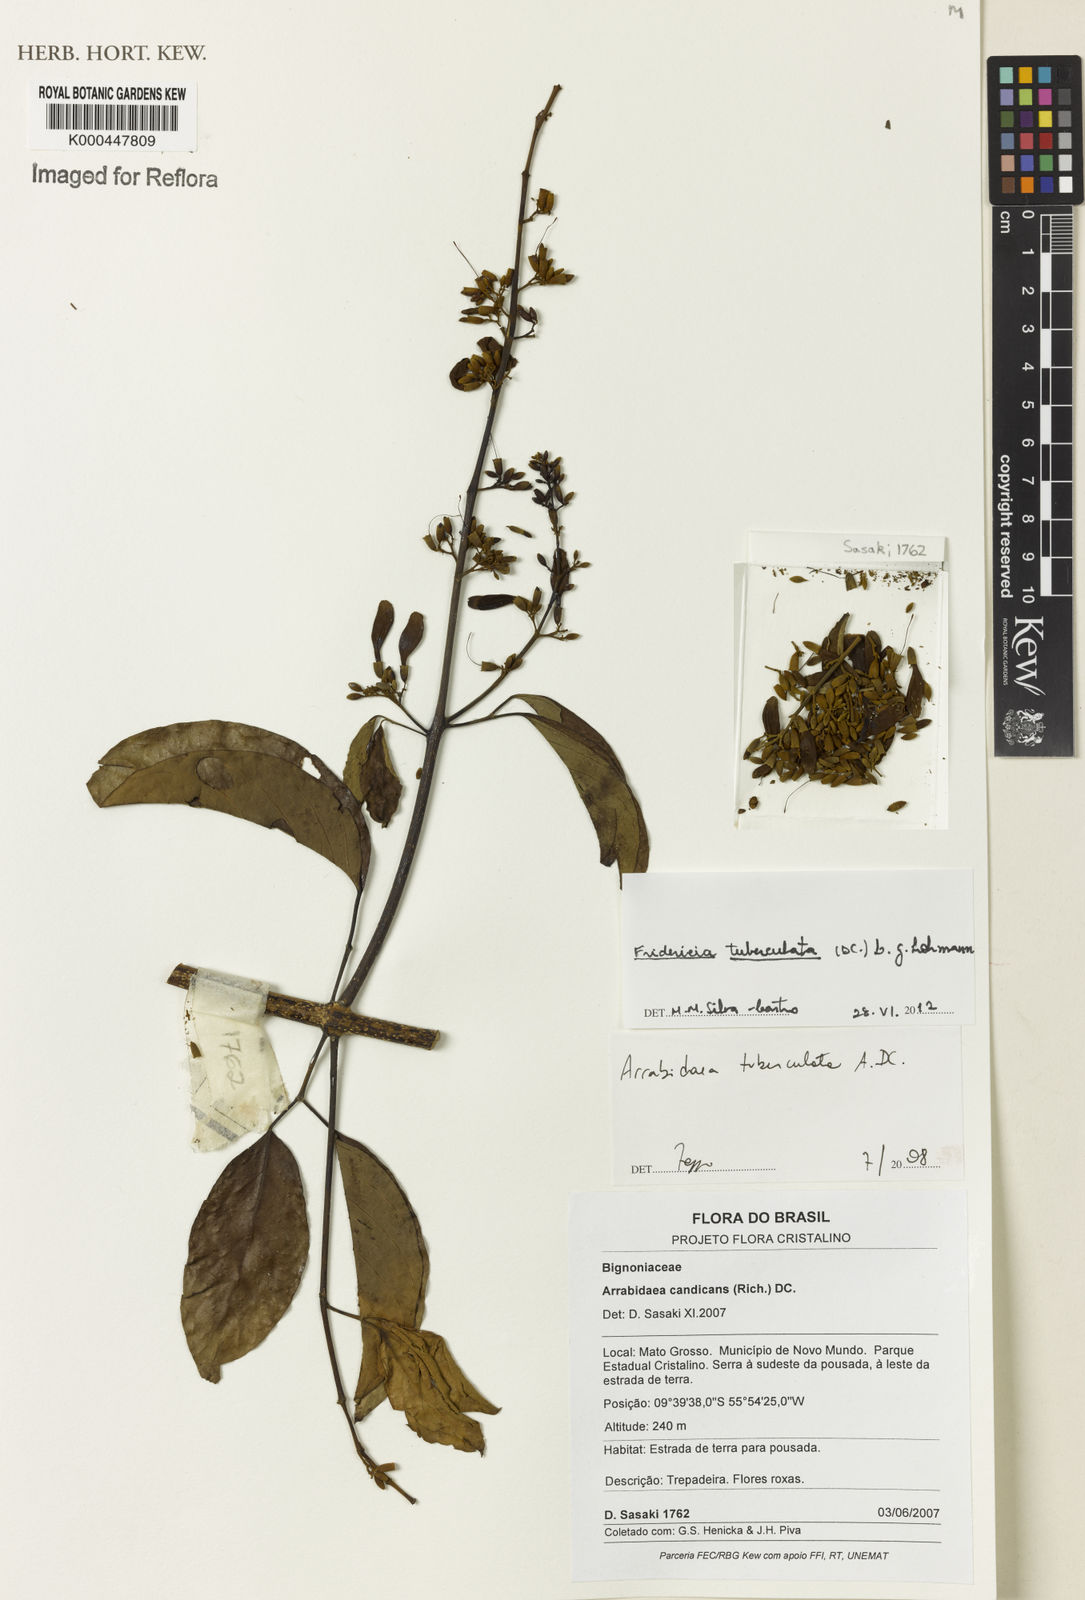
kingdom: Plantae
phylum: Tracheophyta
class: Magnoliopsida
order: Lamiales
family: Bignoniaceae
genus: Fridericia
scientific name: Fridericia tuberculata
